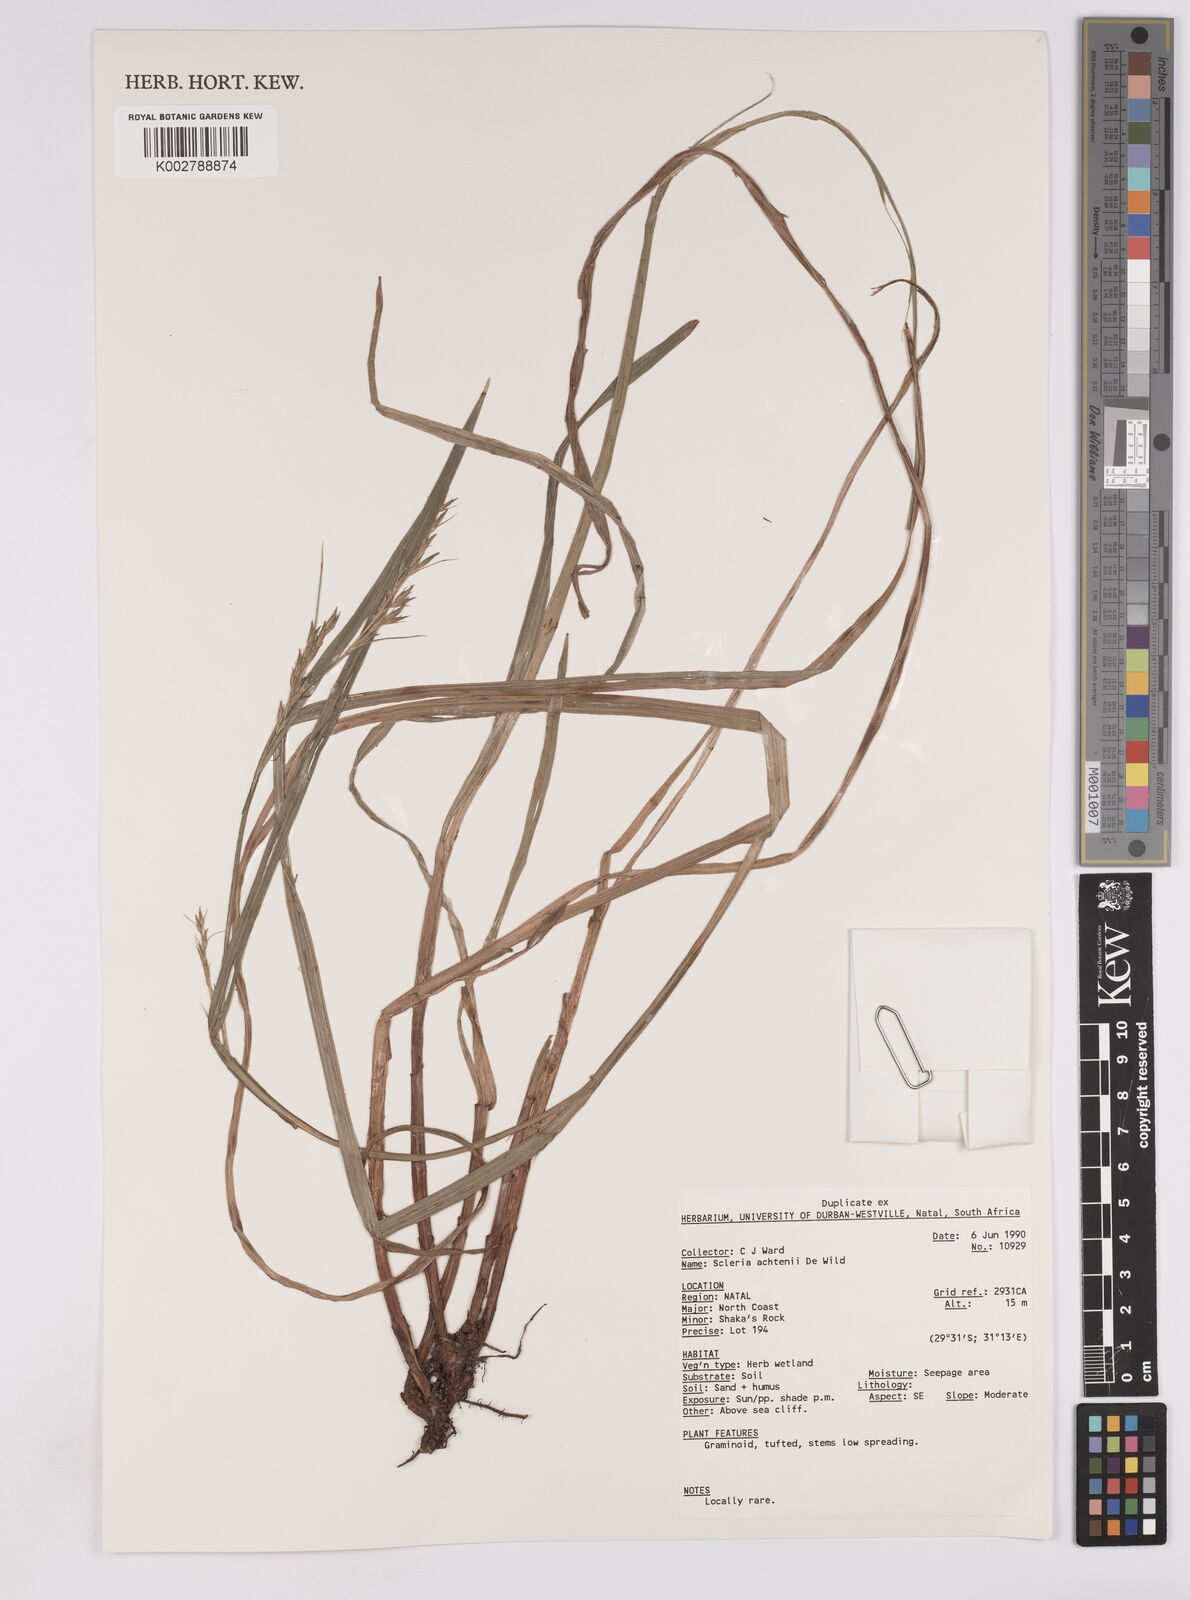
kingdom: Plantae
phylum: Tracheophyta
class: Liliopsida
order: Poales
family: Cyperaceae
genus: Scleria
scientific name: Scleria achtenii
